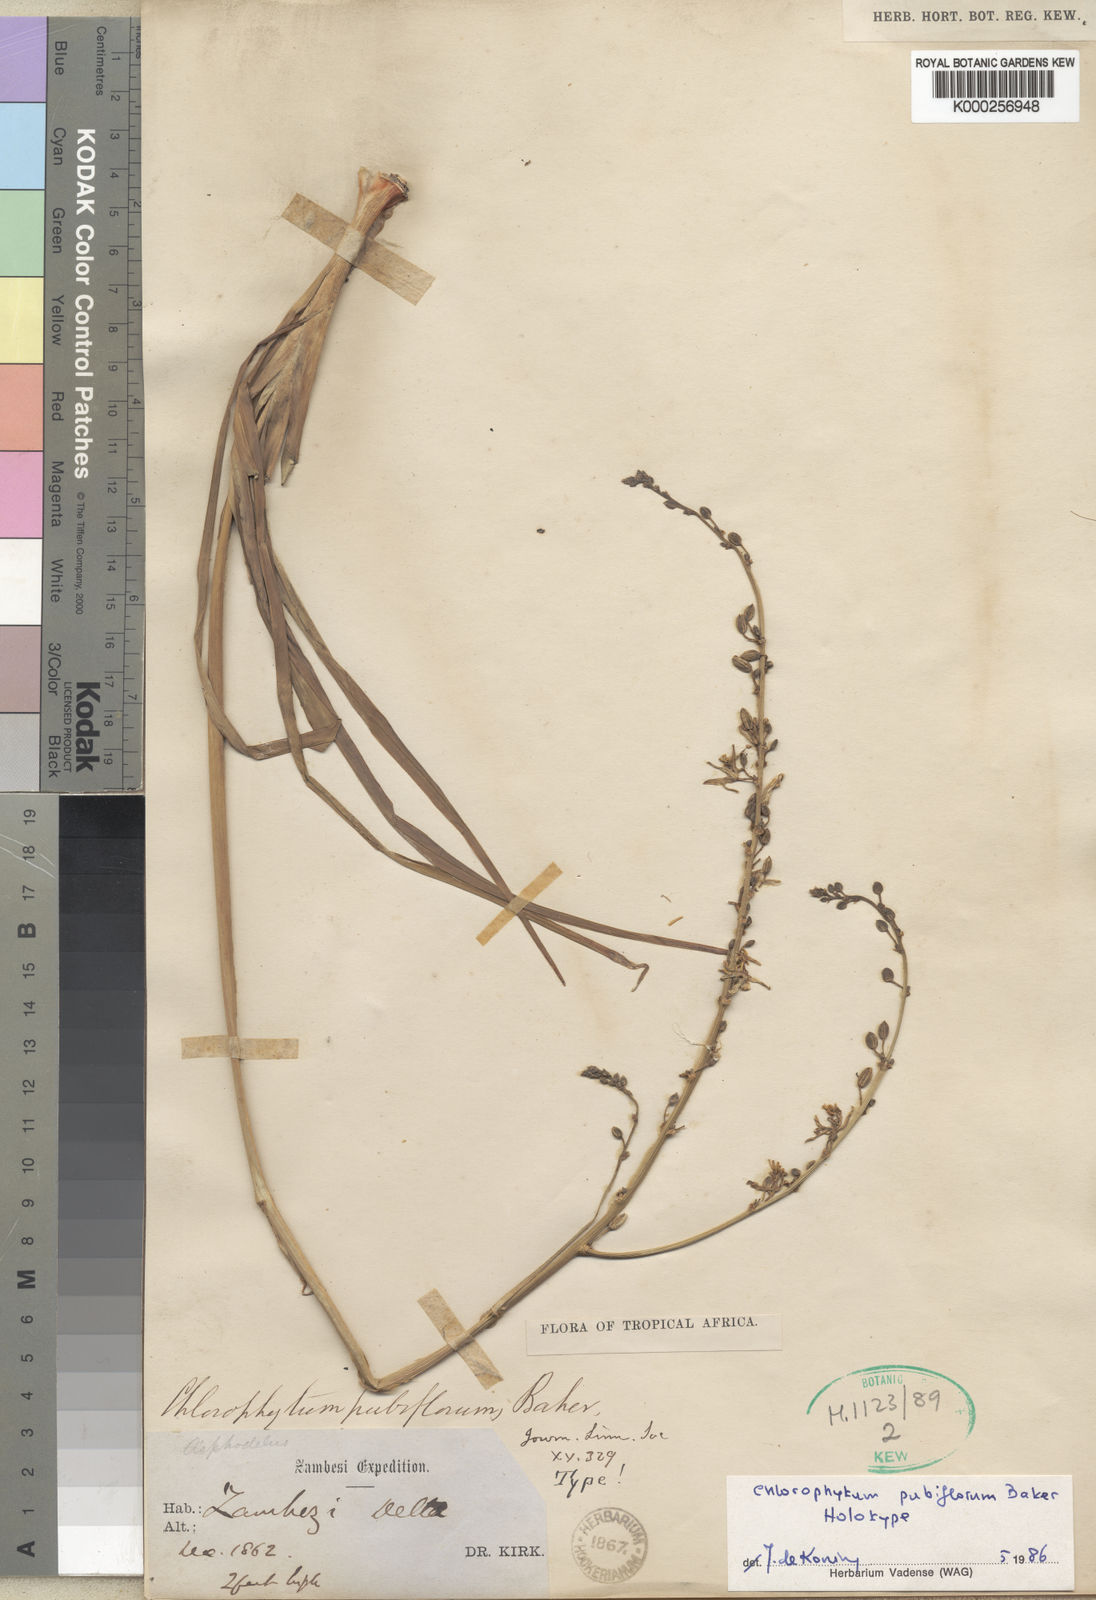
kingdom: Plantae
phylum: Tracheophyta
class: Liliopsida
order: Asparagales
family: Asparagaceae
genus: Chlorophytum
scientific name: Chlorophytum pubiflorum
